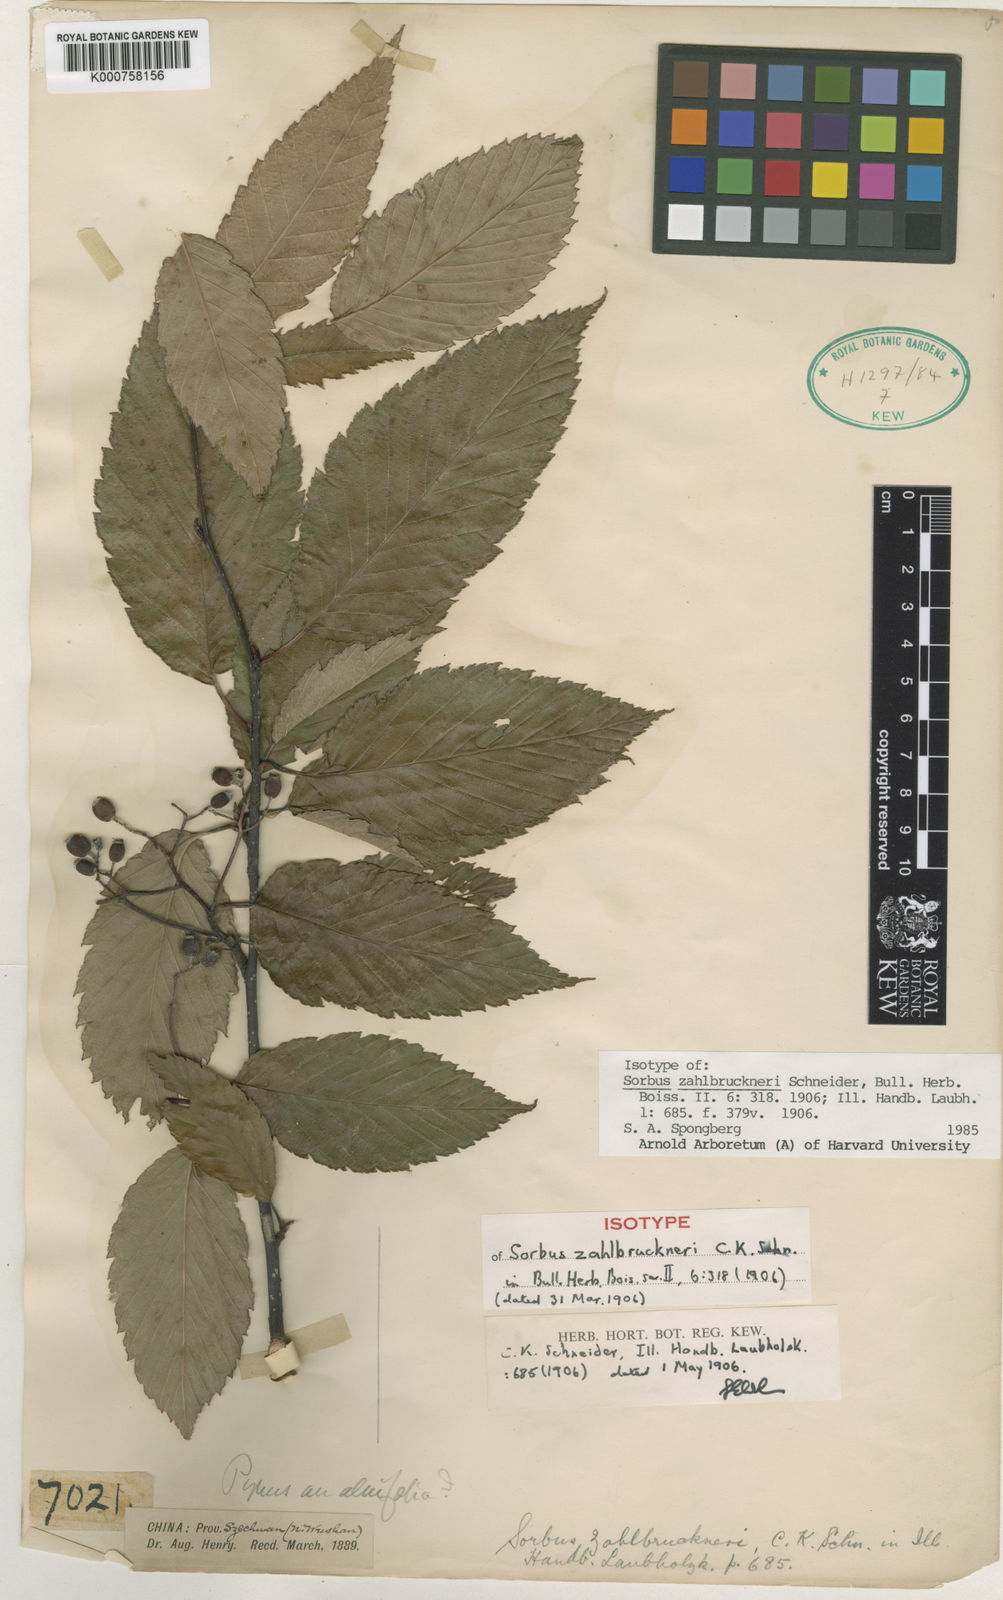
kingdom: Plantae
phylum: Tracheophyta
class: Magnoliopsida
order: Rosales
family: Rosaceae
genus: Sorbus
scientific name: Sorbus zahlbruckneri
